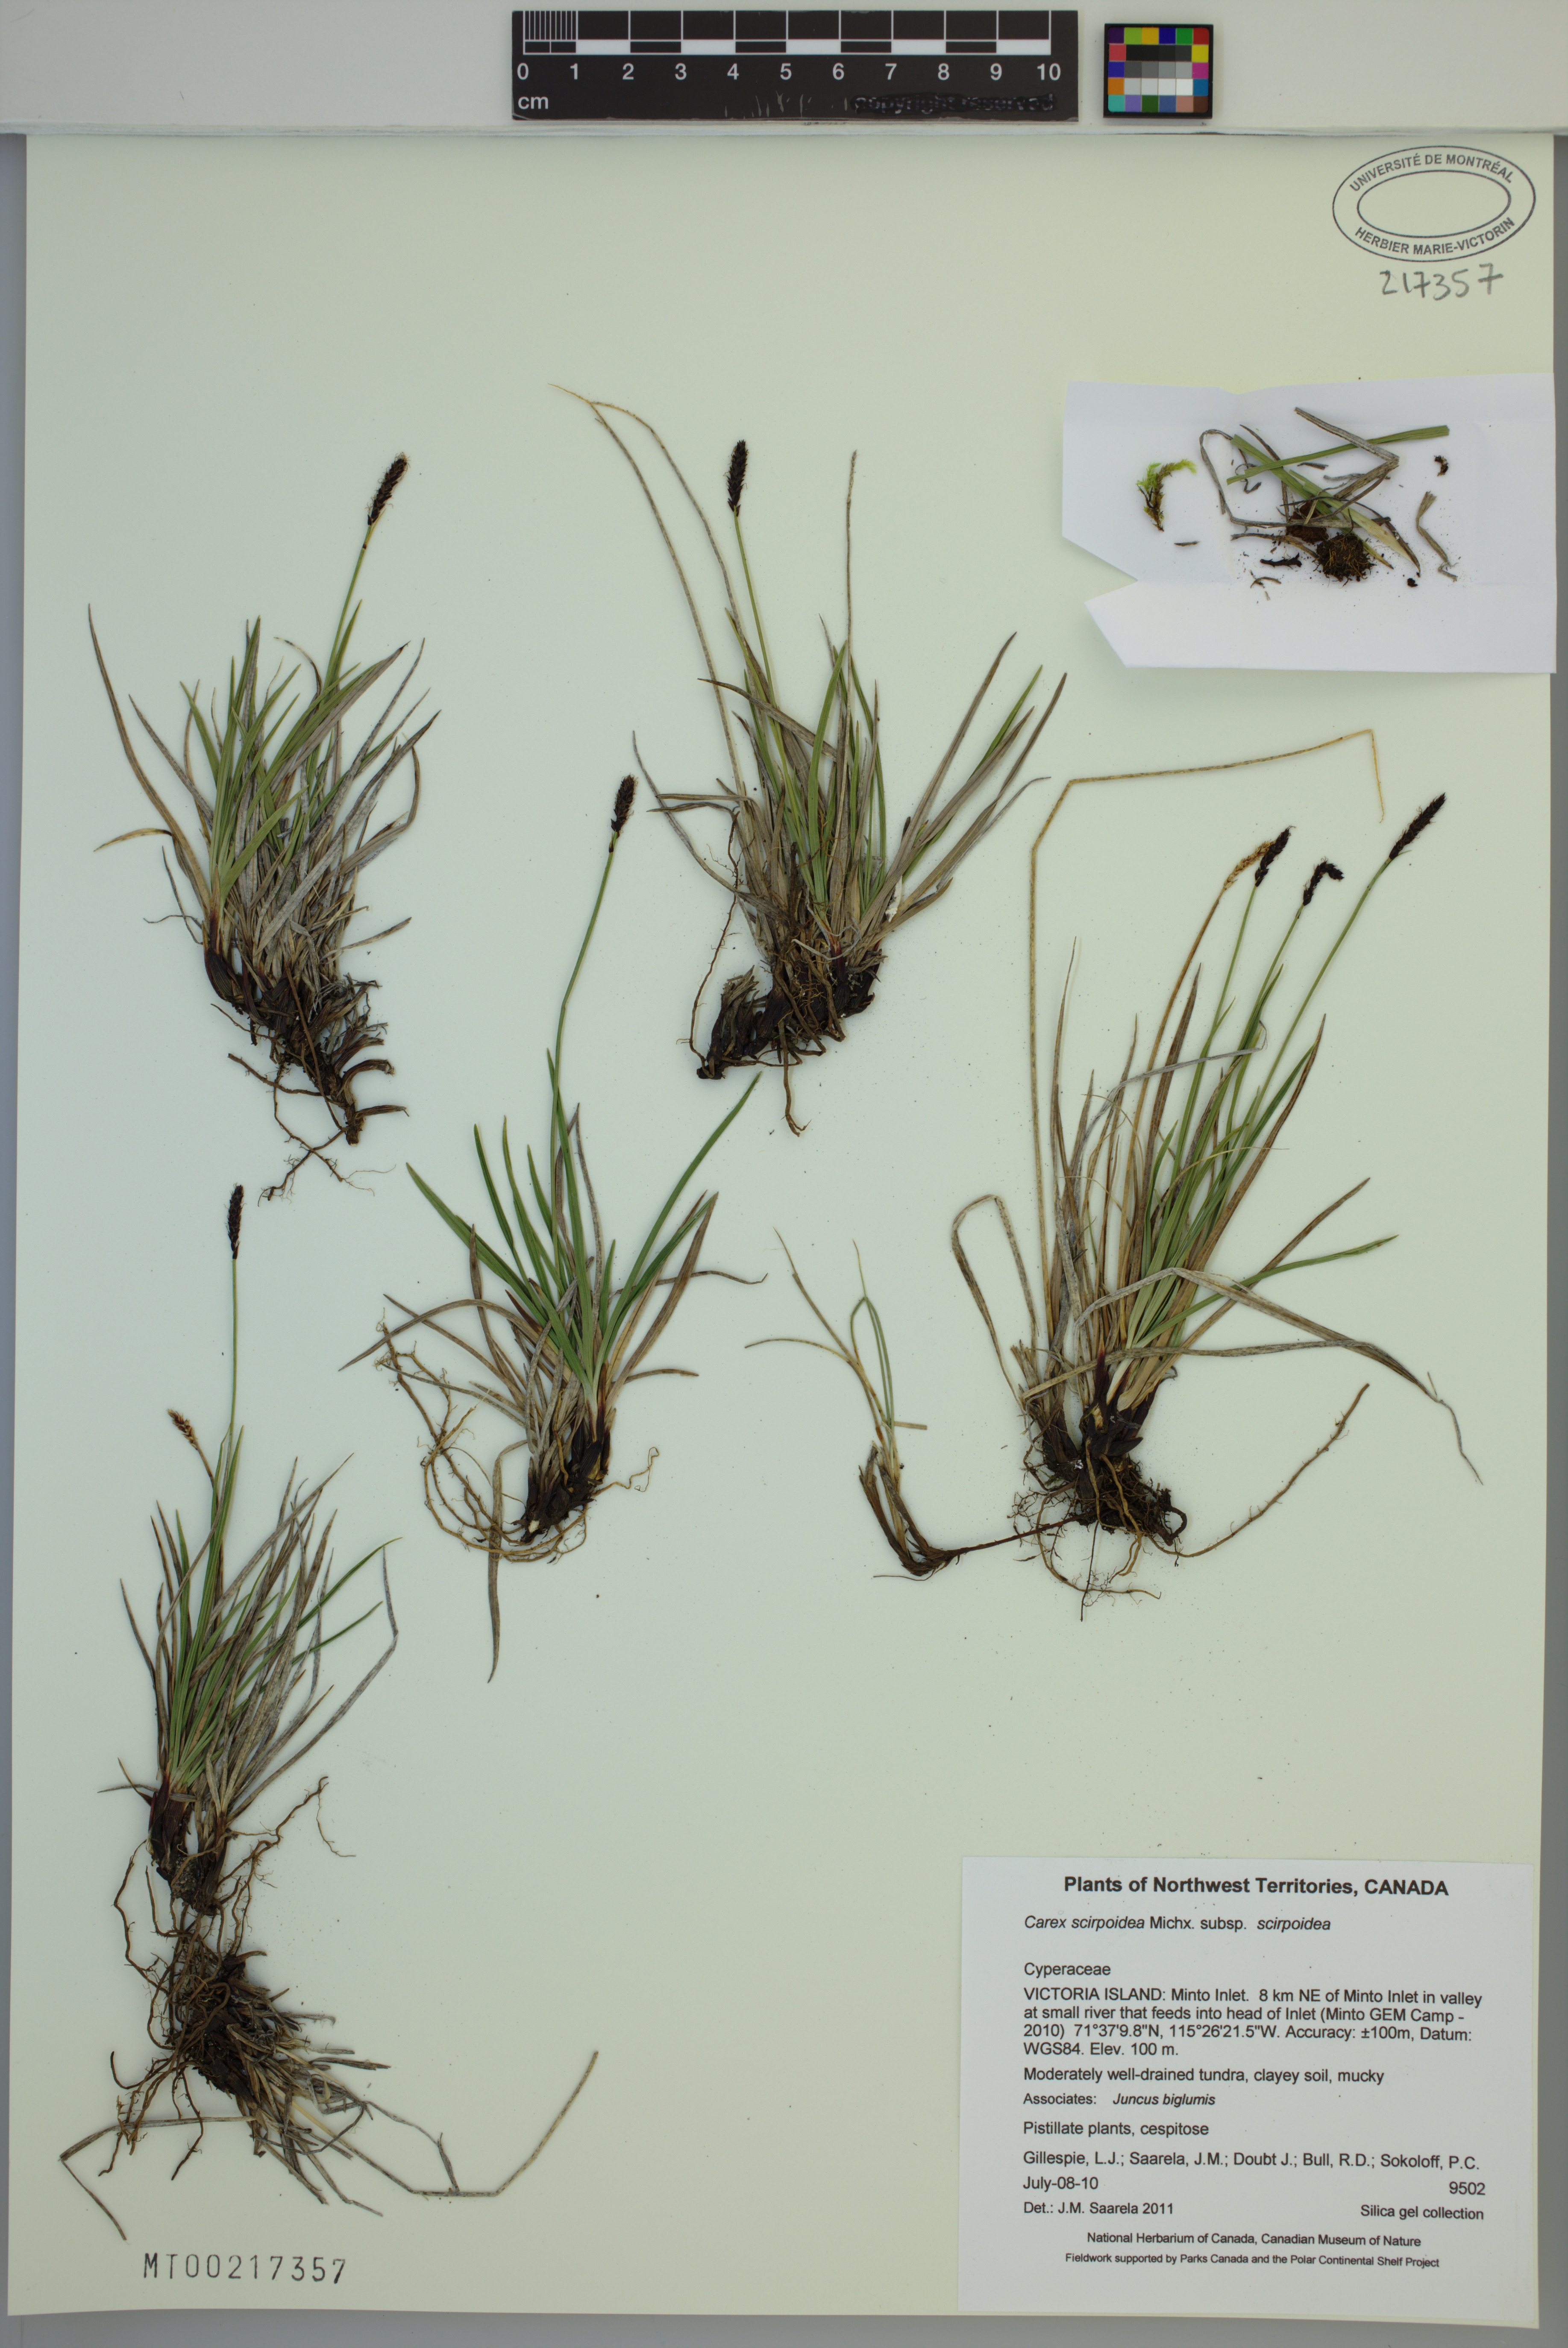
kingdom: Plantae
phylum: Tracheophyta
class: Liliopsida
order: Poales
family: Cyperaceae
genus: Carex
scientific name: Carex scirpoidea
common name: Canada single-spike sedge
